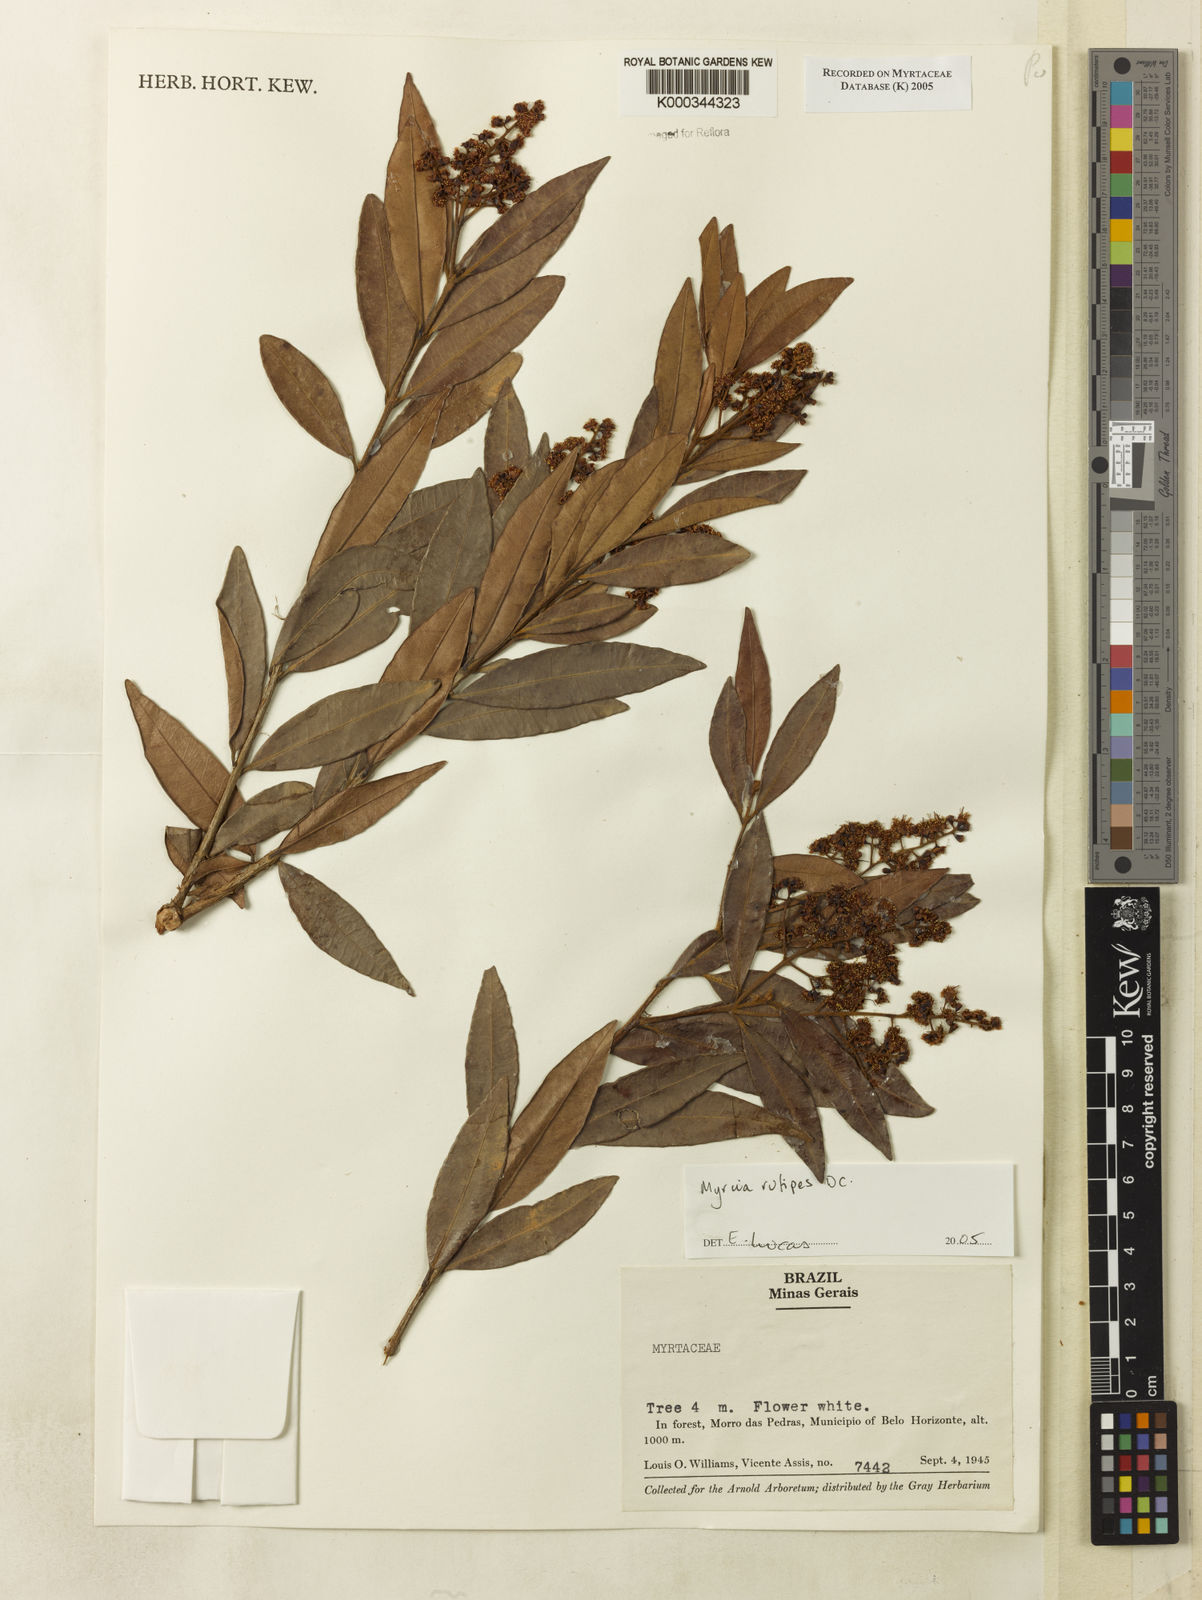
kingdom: Plantae
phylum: Tracheophyta
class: Magnoliopsida
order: Myrtales
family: Myrtaceae
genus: Myrcia
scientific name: Myrcia rufipes
